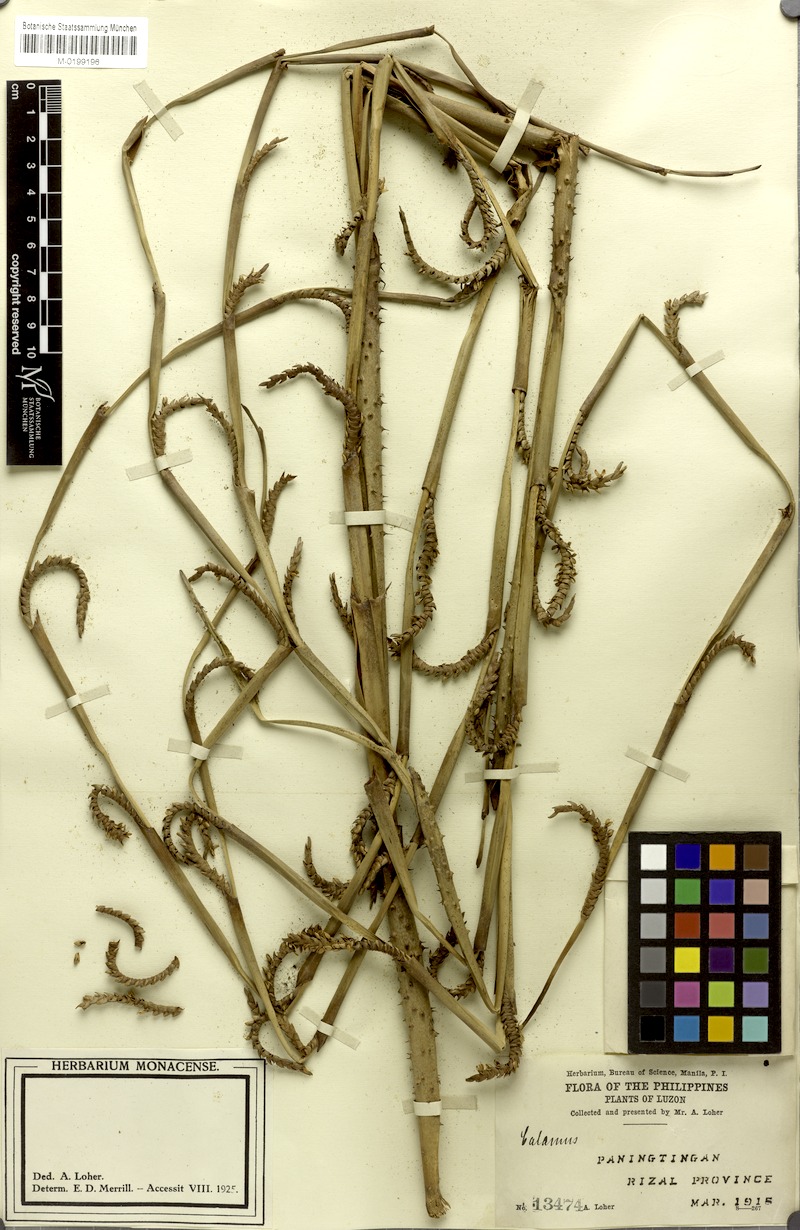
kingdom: Plantae
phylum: Tracheophyta
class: Liliopsida
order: Arecales
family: Arecaceae
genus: Calamus
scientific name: Calamus manillensis
